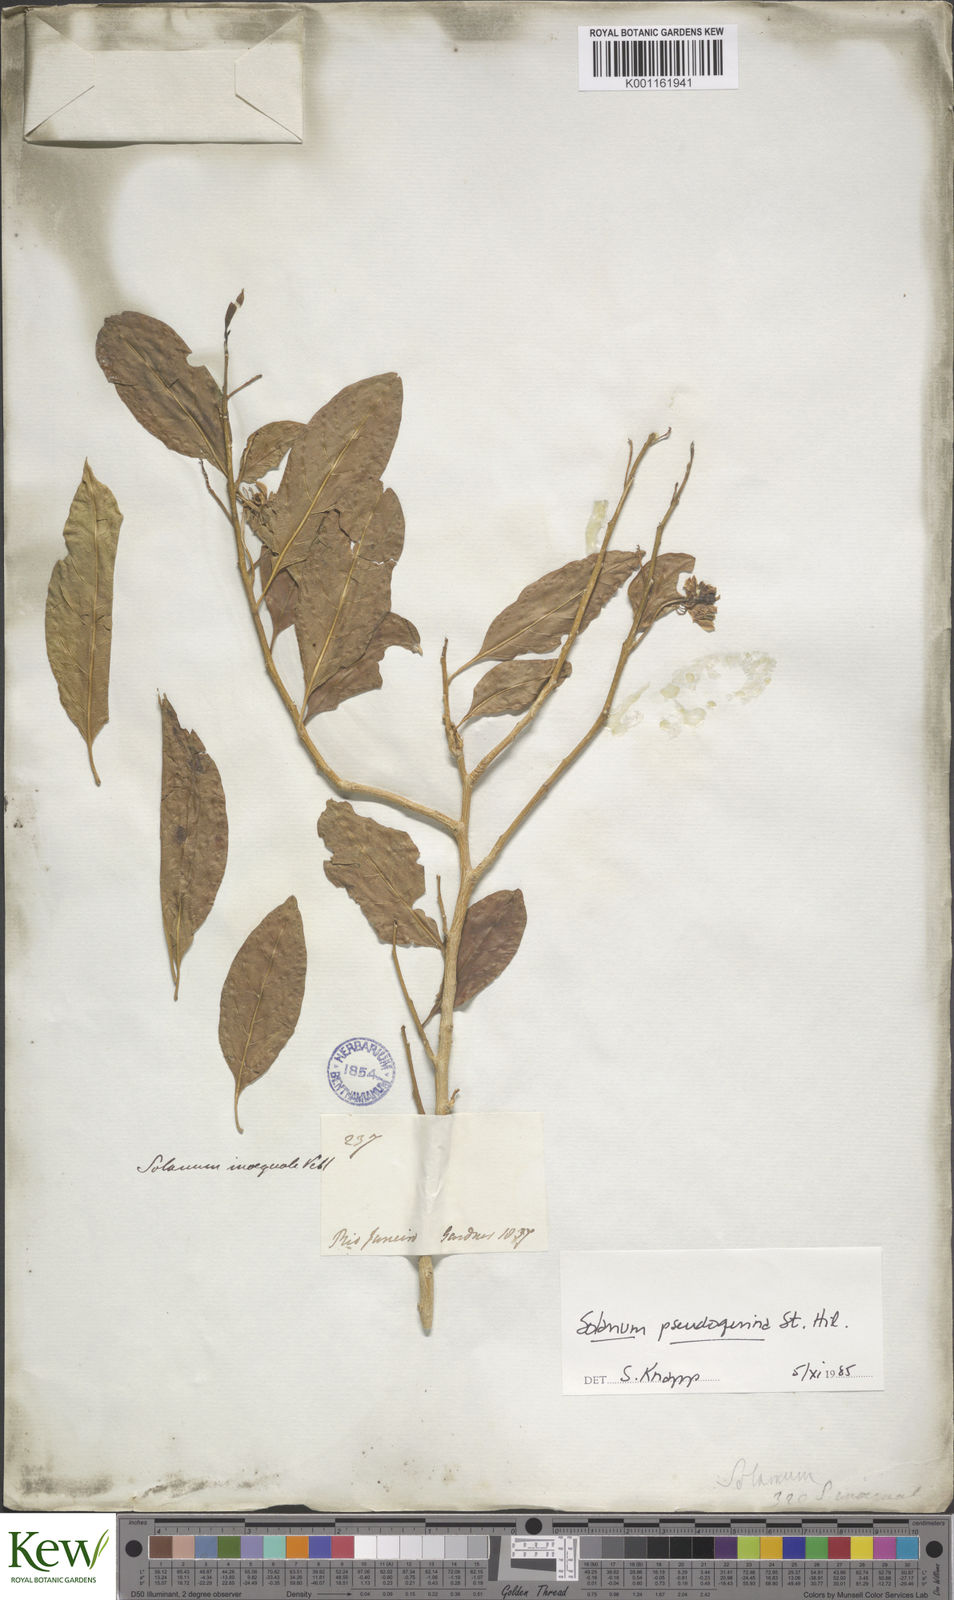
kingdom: Plantae
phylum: Tracheophyta
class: Magnoliopsida
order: Solanales
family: Solanaceae
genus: Solanum
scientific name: Solanum pseudoquina
